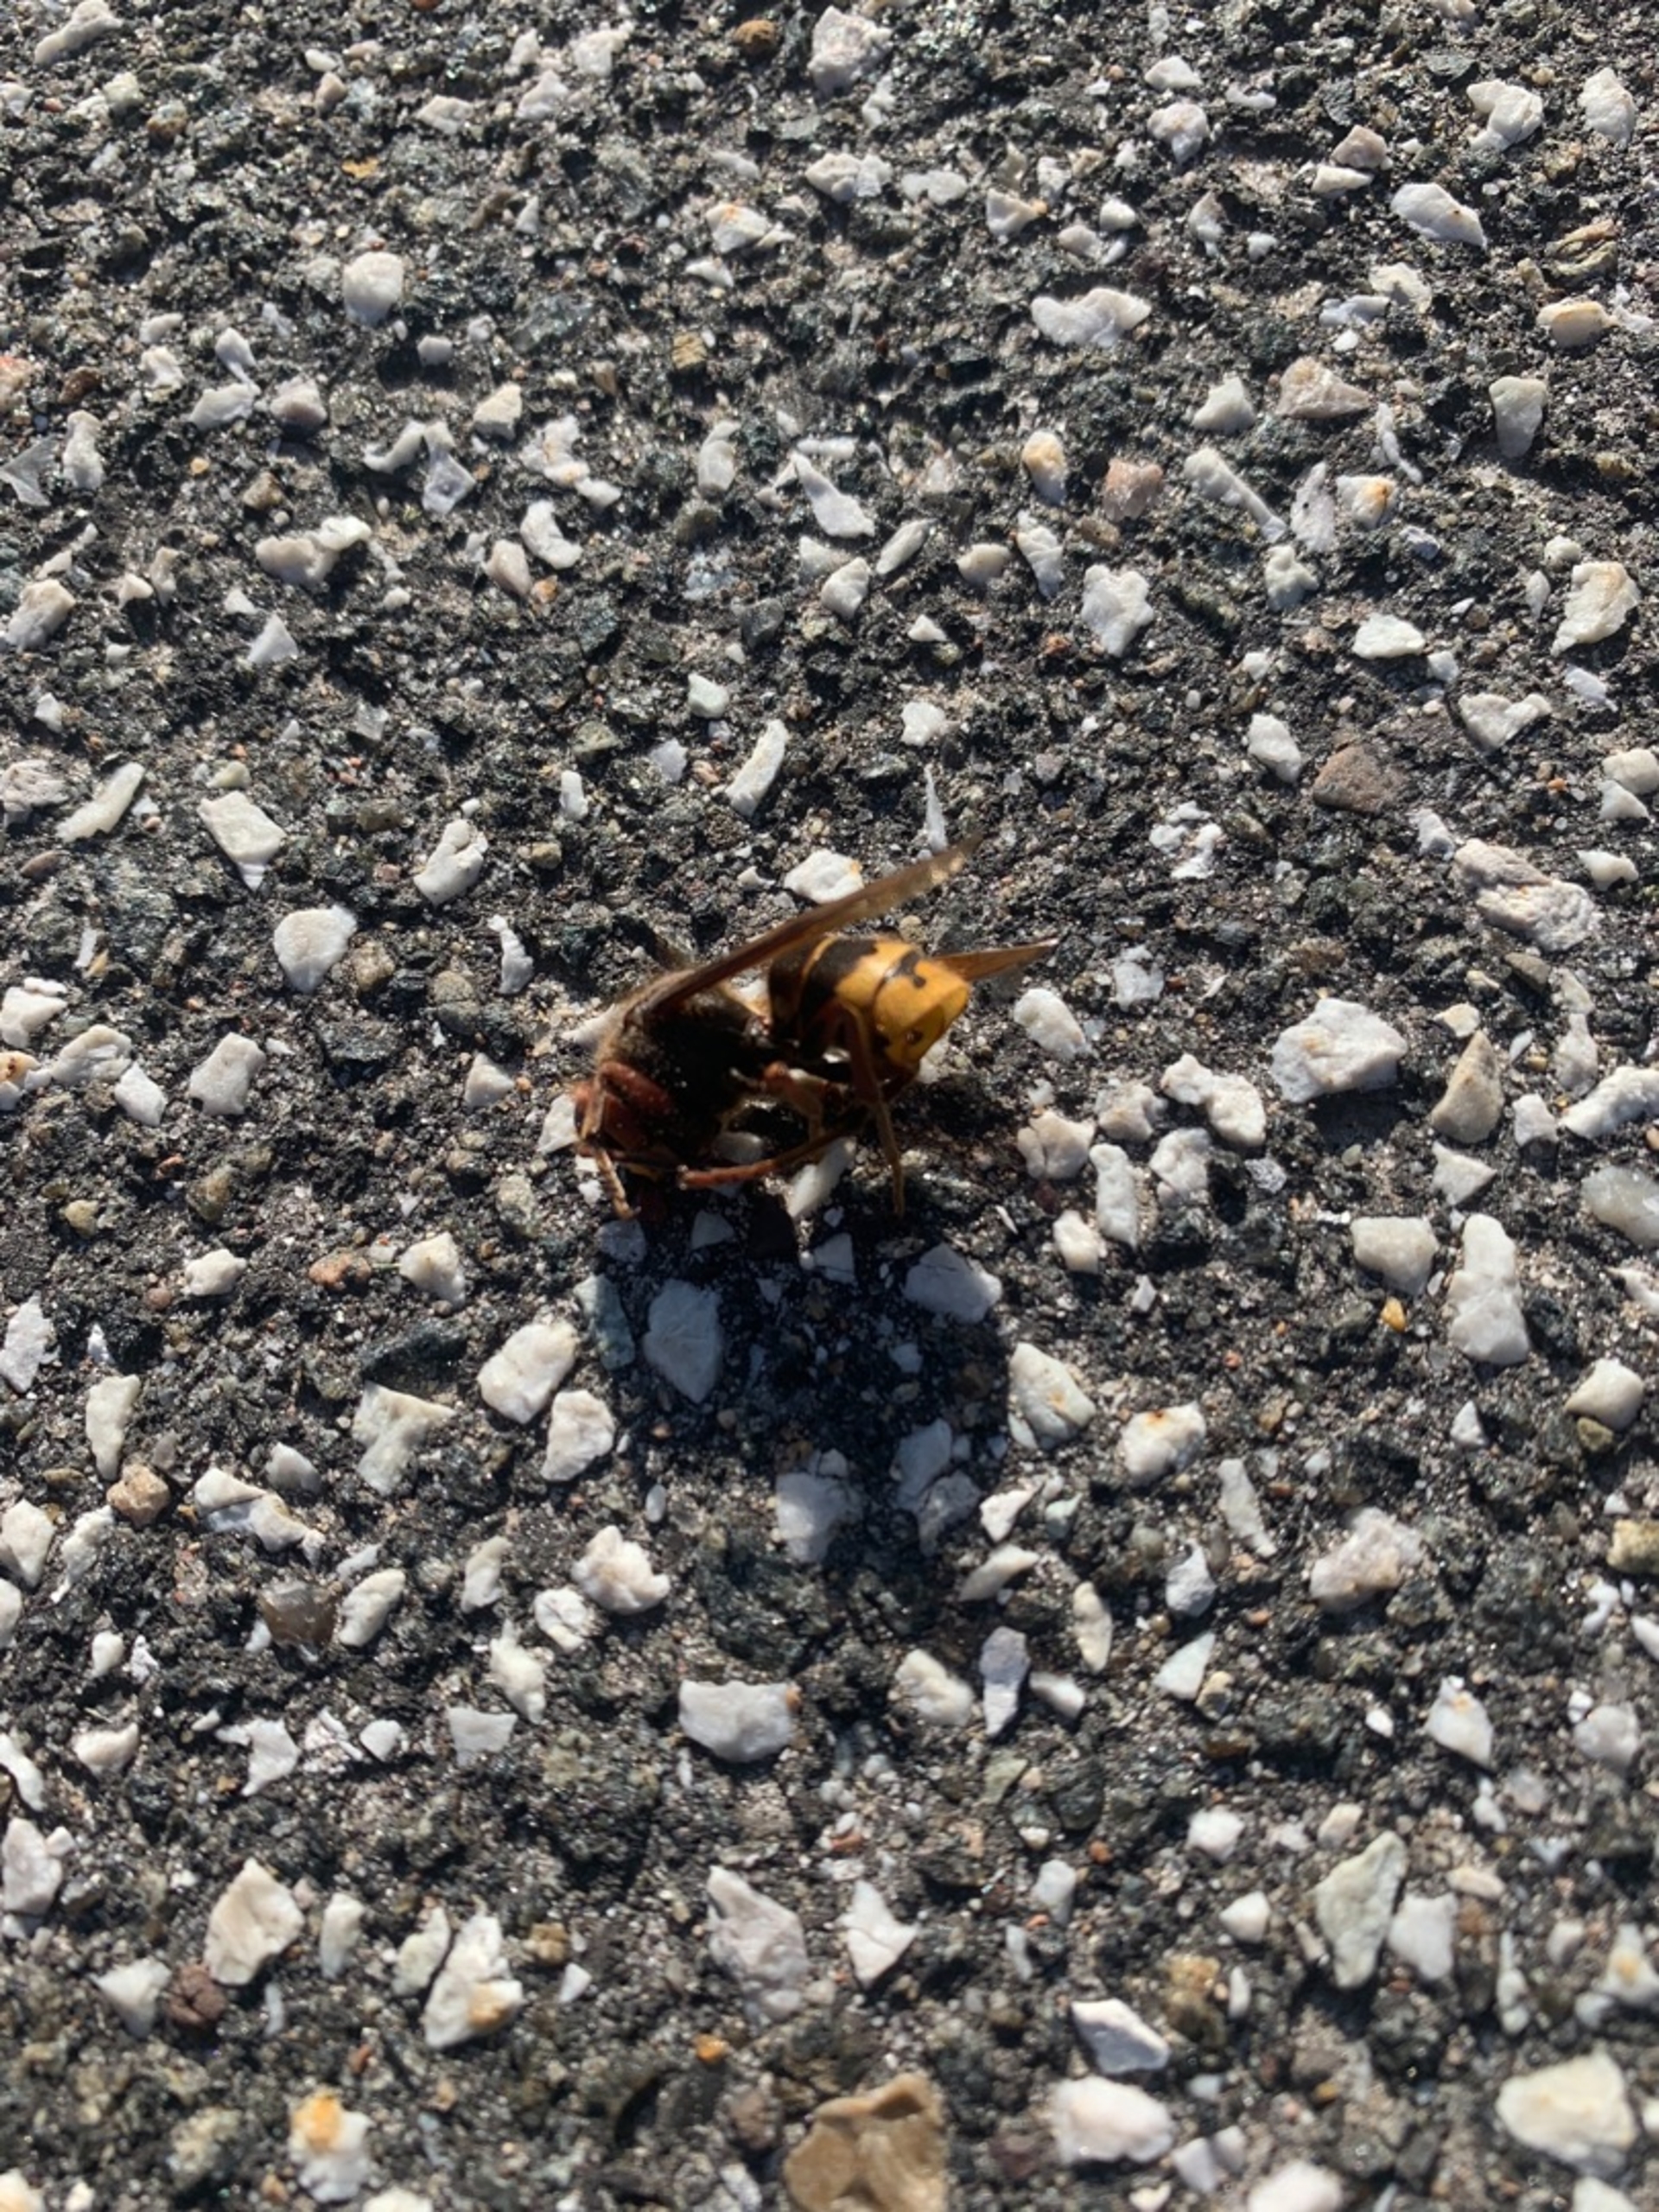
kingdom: Animalia
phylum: Arthropoda
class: Insecta
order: Hymenoptera
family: Vespidae
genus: Vespa
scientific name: Vespa crabro
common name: Stor gedehams
